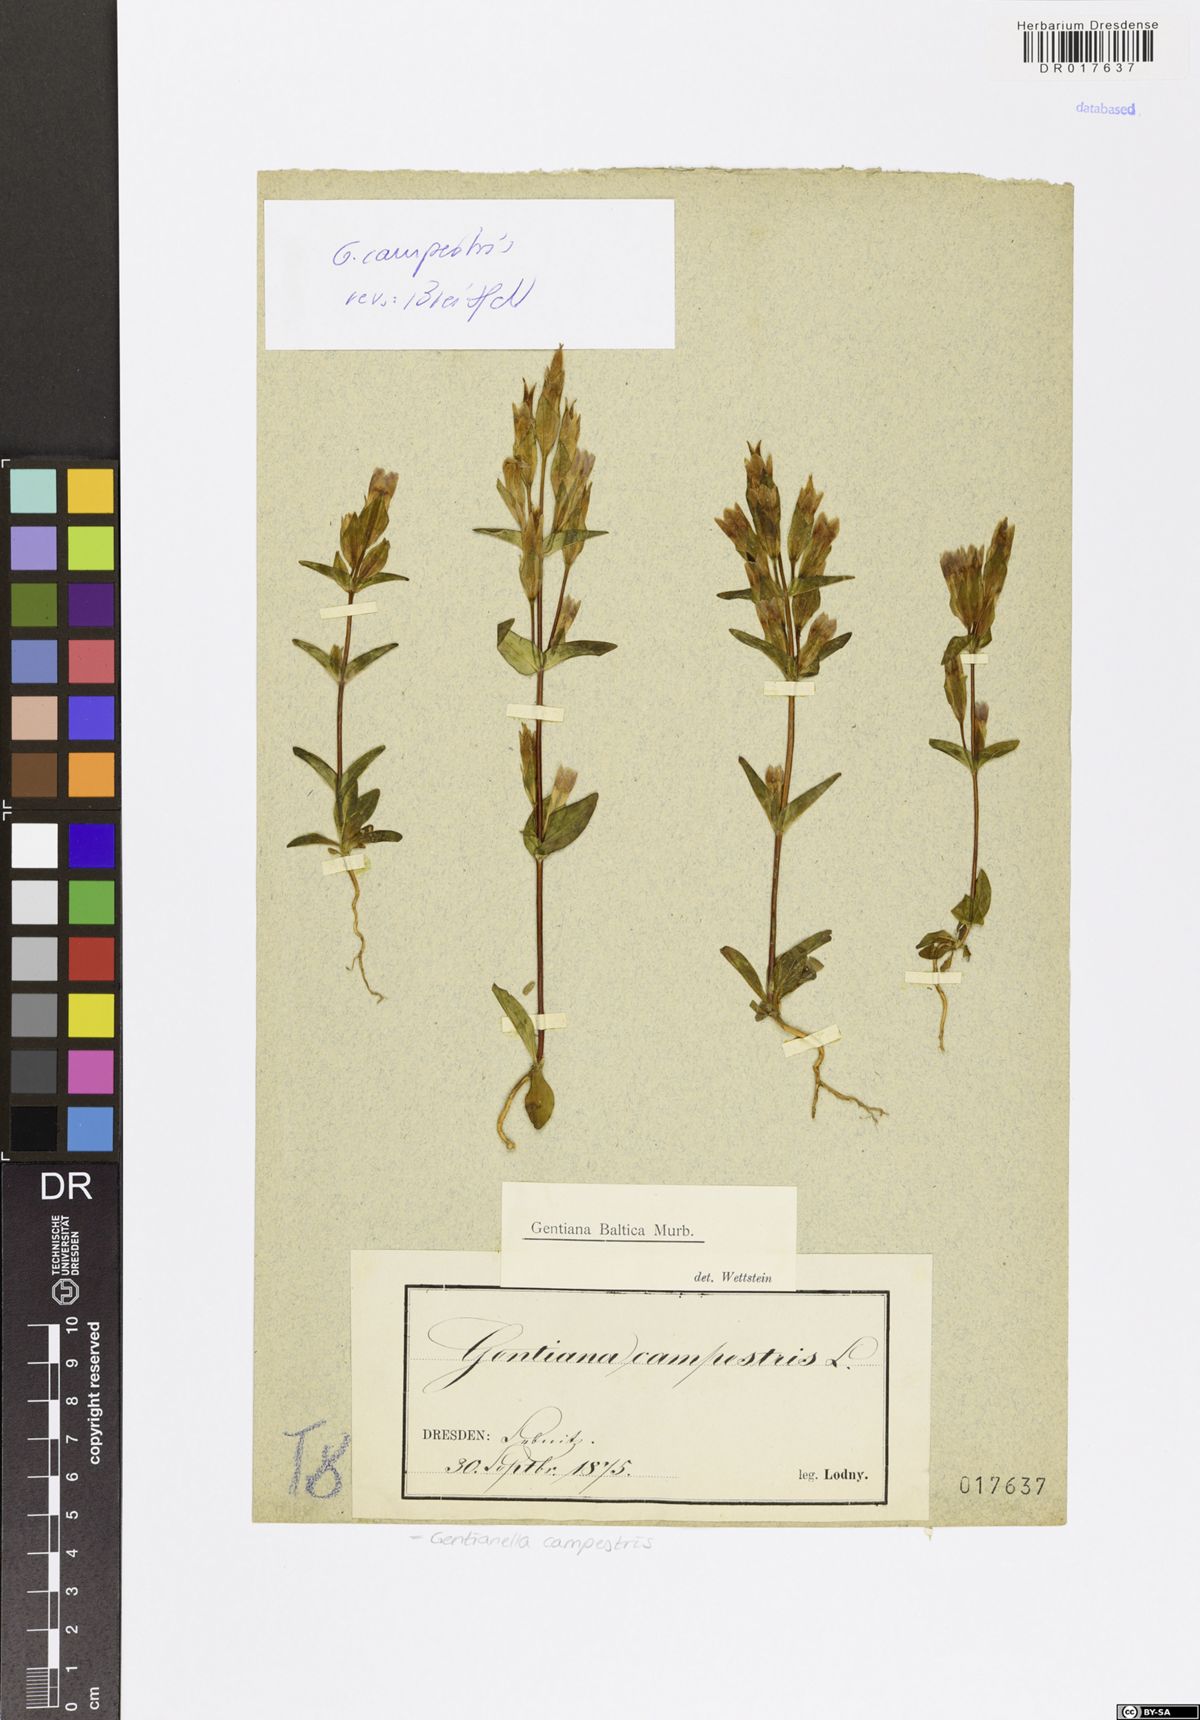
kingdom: Plantae
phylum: Tracheophyta
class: Magnoliopsida
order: Gentianales
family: Gentianaceae
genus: Gentianella
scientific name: Gentianella campestris
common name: Field gentian
